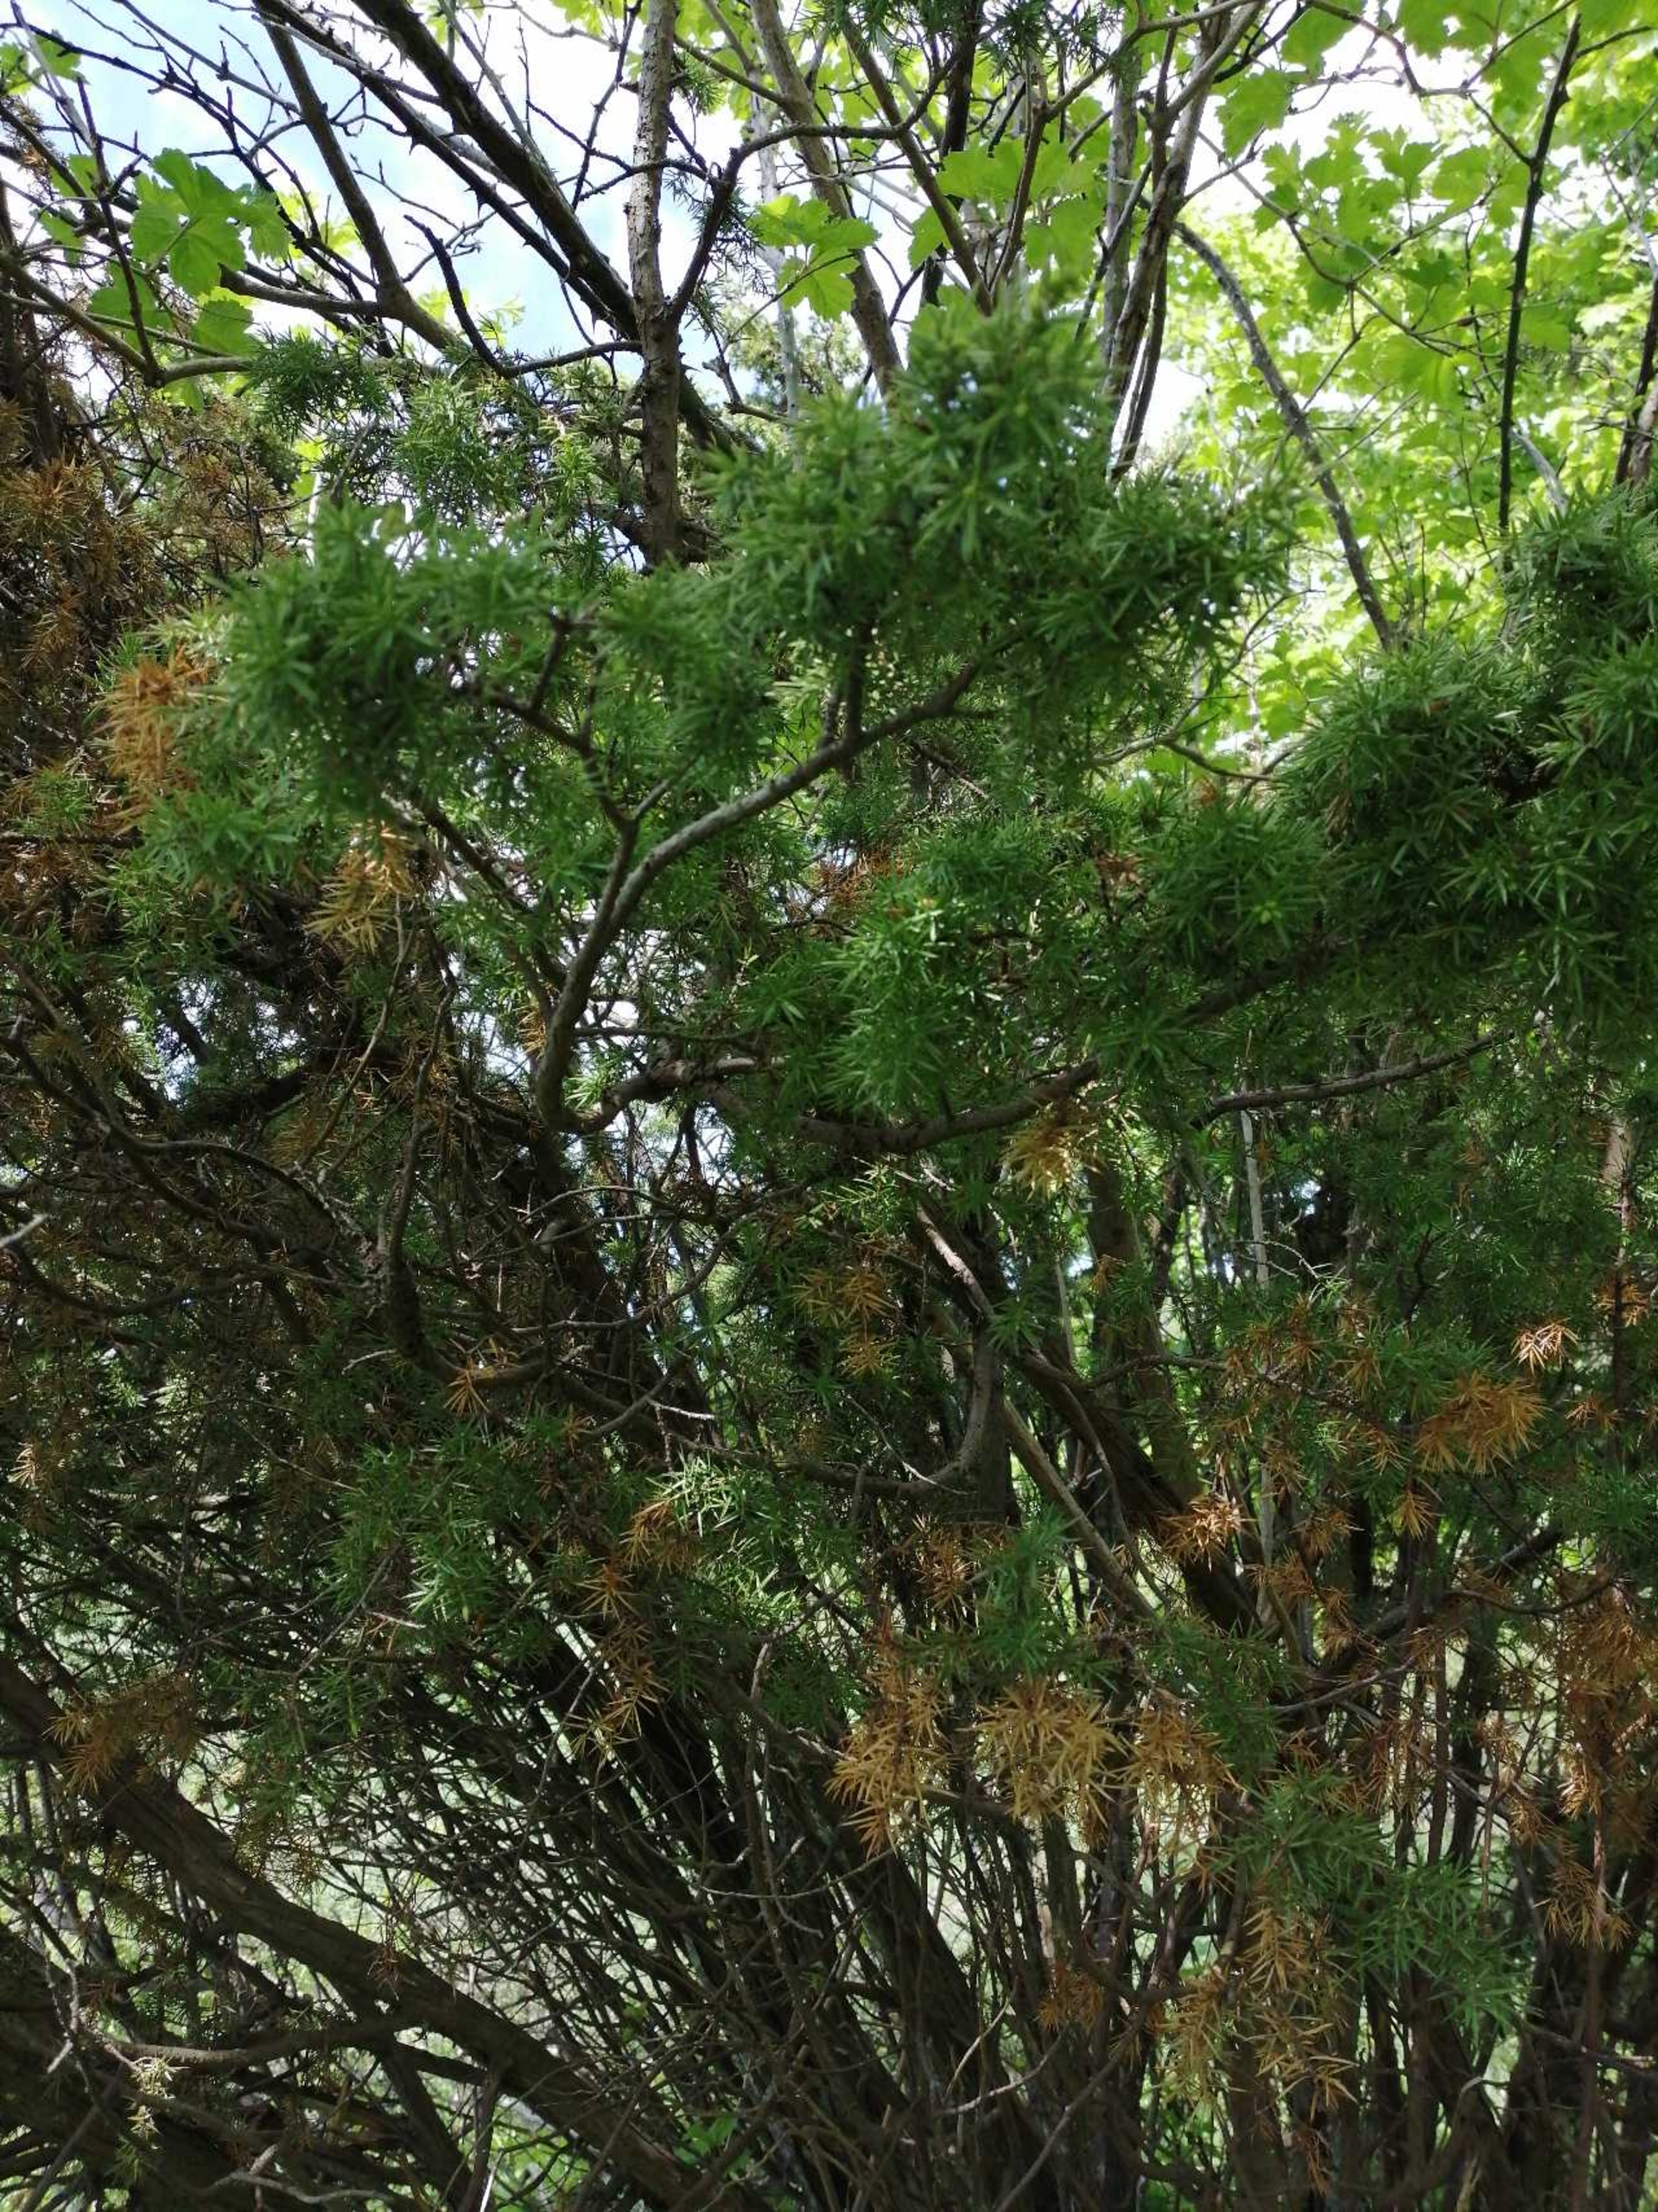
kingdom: Plantae
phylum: Tracheophyta
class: Pinopsida
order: Pinales
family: Cupressaceae
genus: Juniperus
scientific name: Juniperus communis
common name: Almindelig ene
